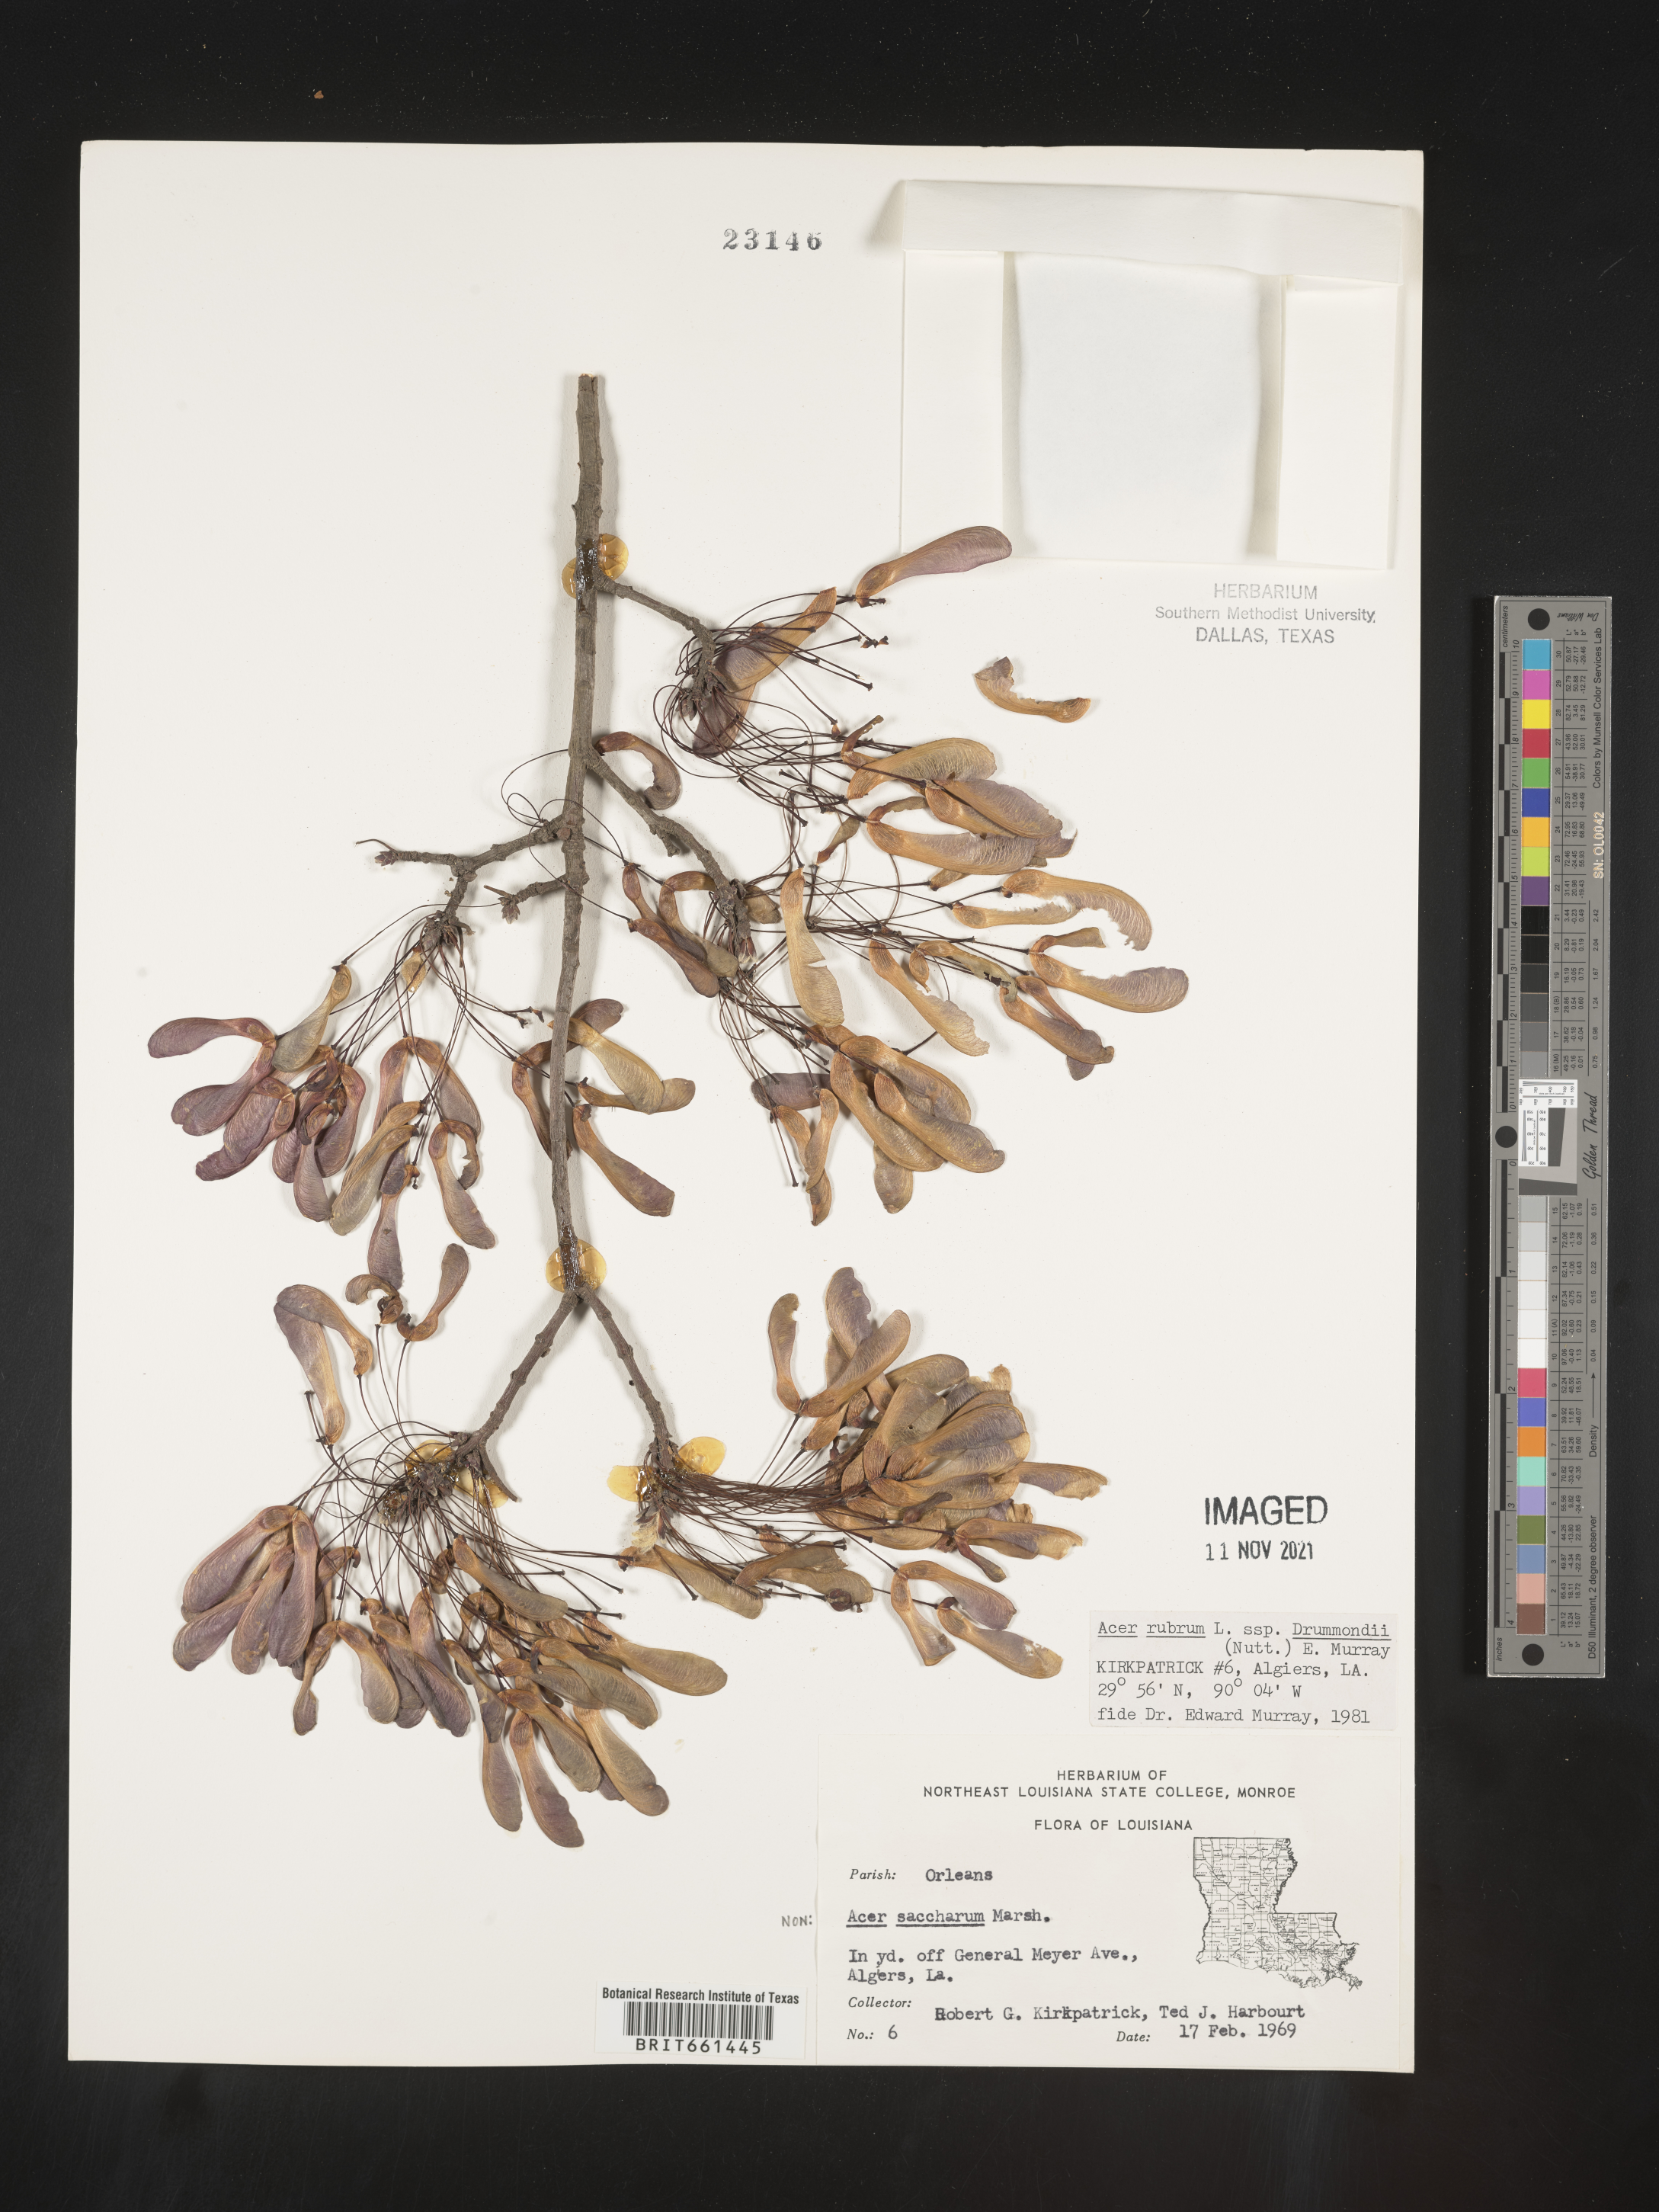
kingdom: Plantae
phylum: Tracheophyta
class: Magnoliopsida
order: Sapindales
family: Sapindaceae
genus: Acer
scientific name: Acer rubrum
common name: Red maple
